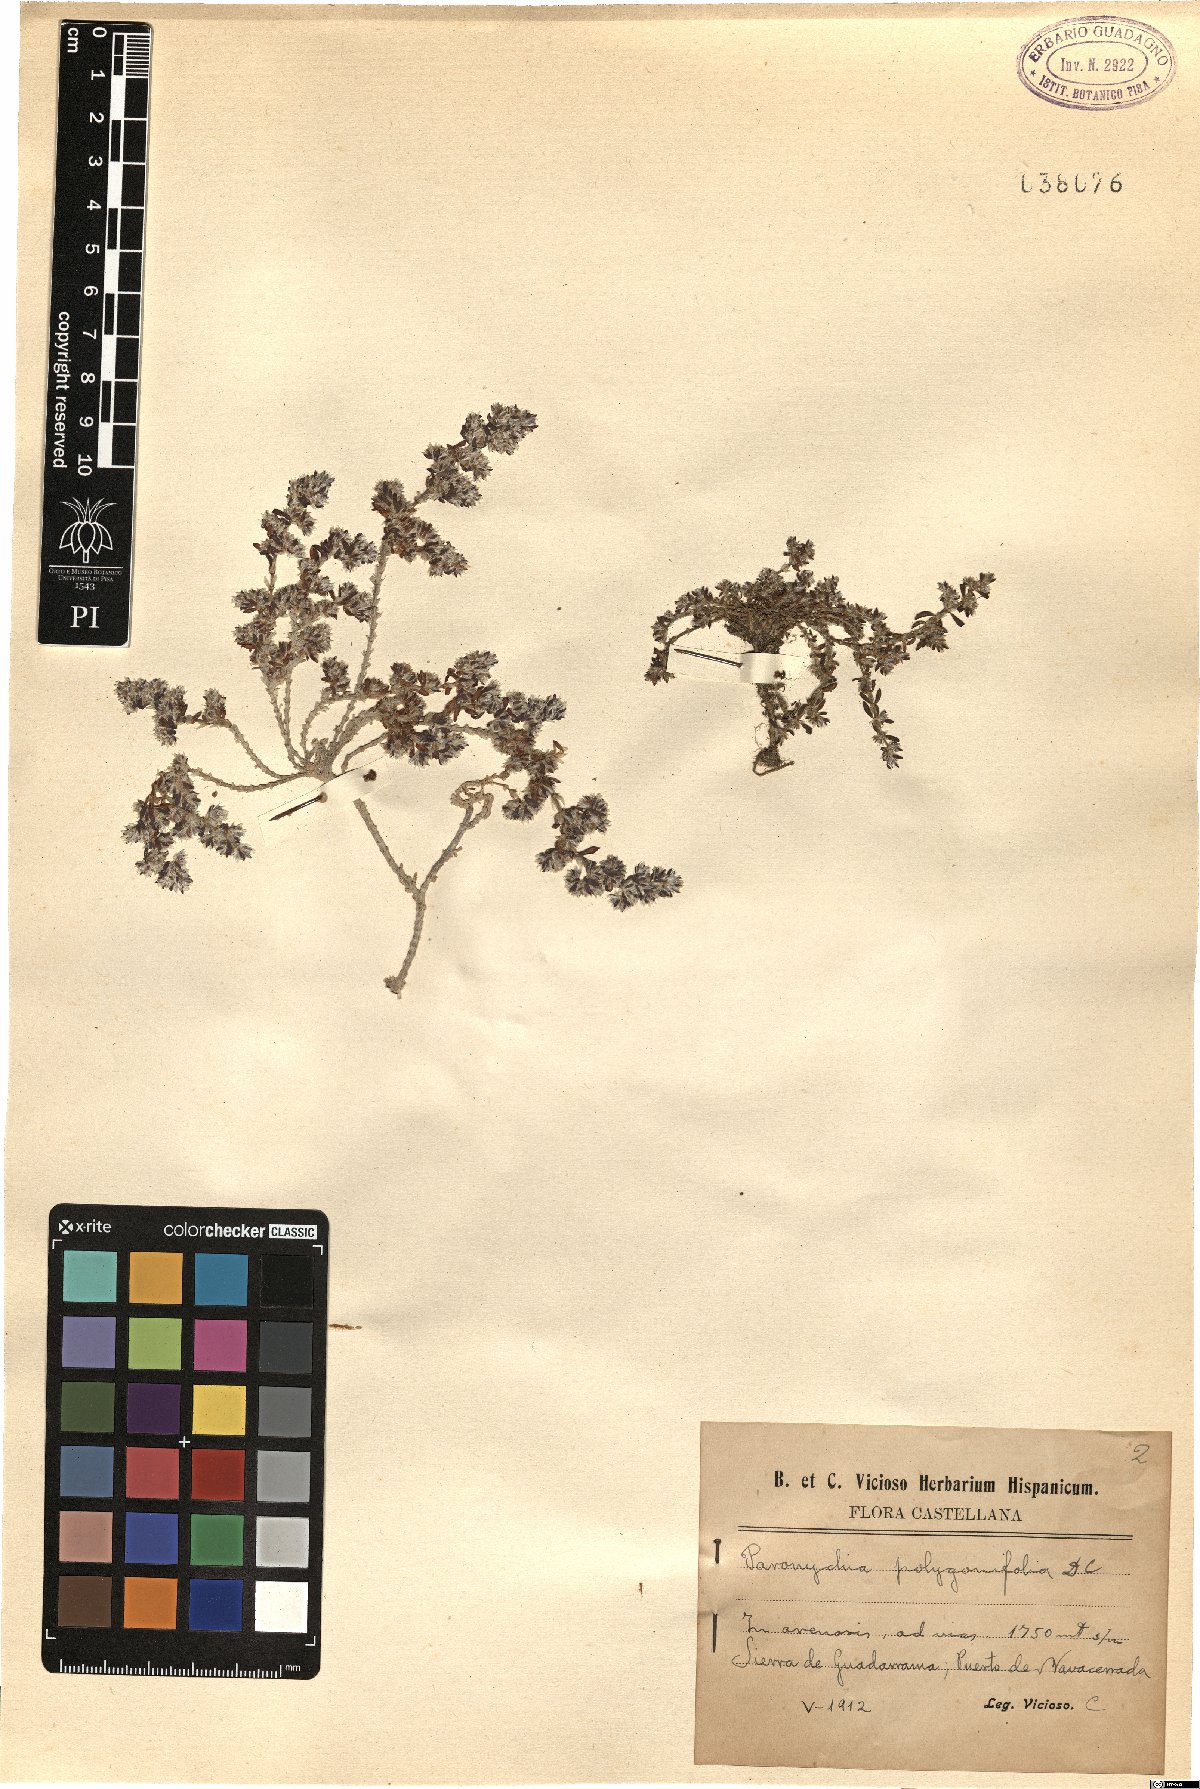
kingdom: Plantae
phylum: Tracheophyta
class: Magnoliopsida
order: Caryophyllales
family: Caryophyllaceae
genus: Paronychia
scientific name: Paronychia polygonifolia
